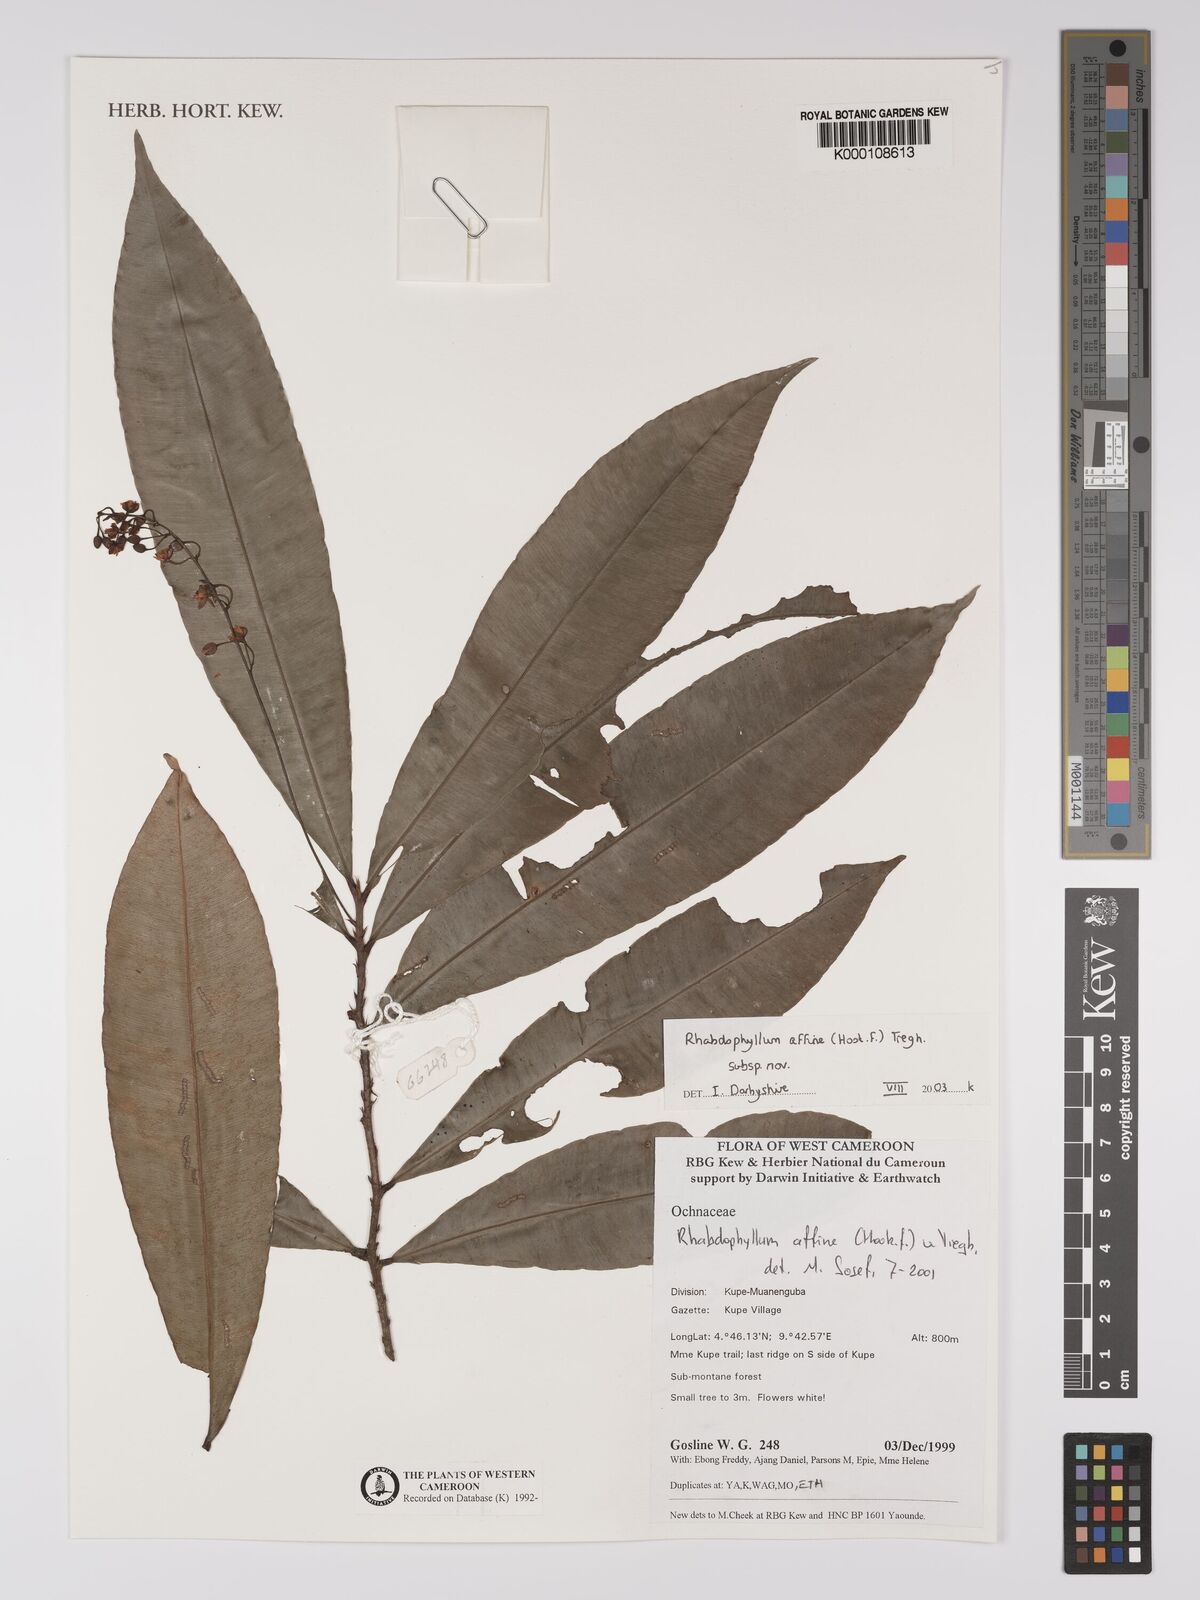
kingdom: Plantae
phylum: Tracheophyta
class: Magnoliopsida
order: Malpighiales
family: Ochnaceae
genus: Rhabdophyllum
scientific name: Rhabdophyllum affine
